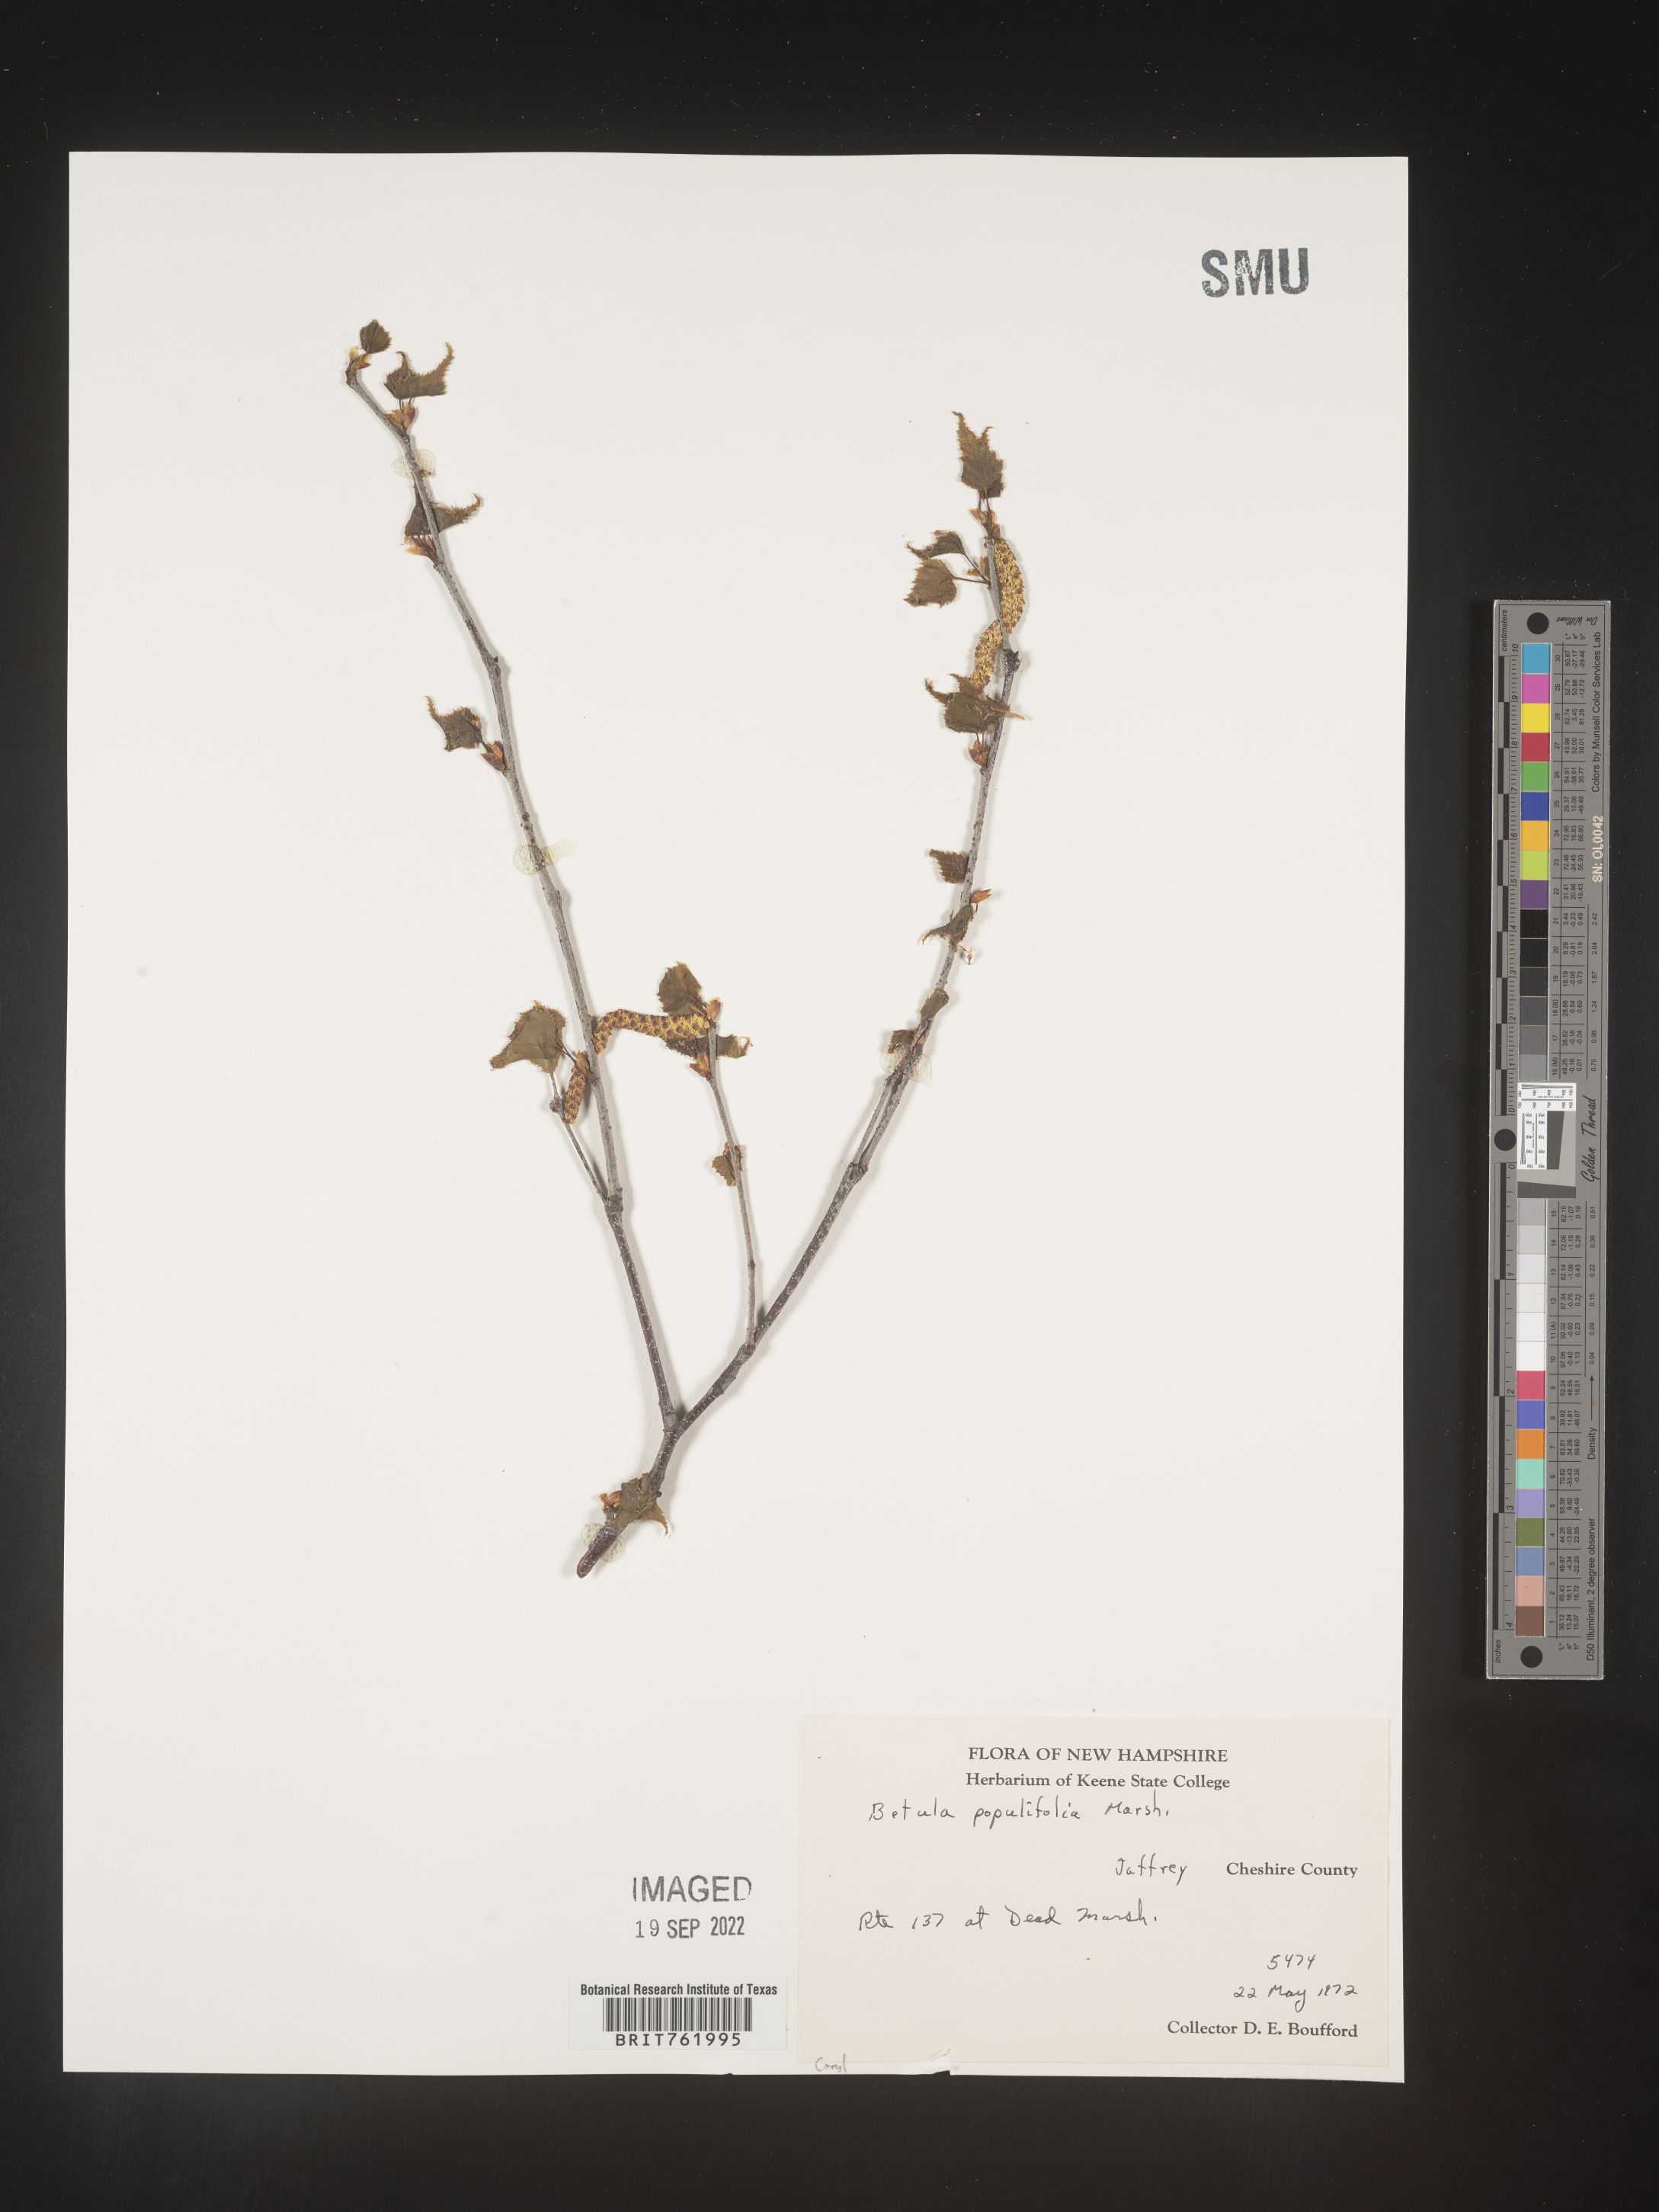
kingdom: Plantae
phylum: Tracheophyta
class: Magnoliopsida
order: Fagales
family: Betulaceae
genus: Betula
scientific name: Betula populifolia
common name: Fire birch
